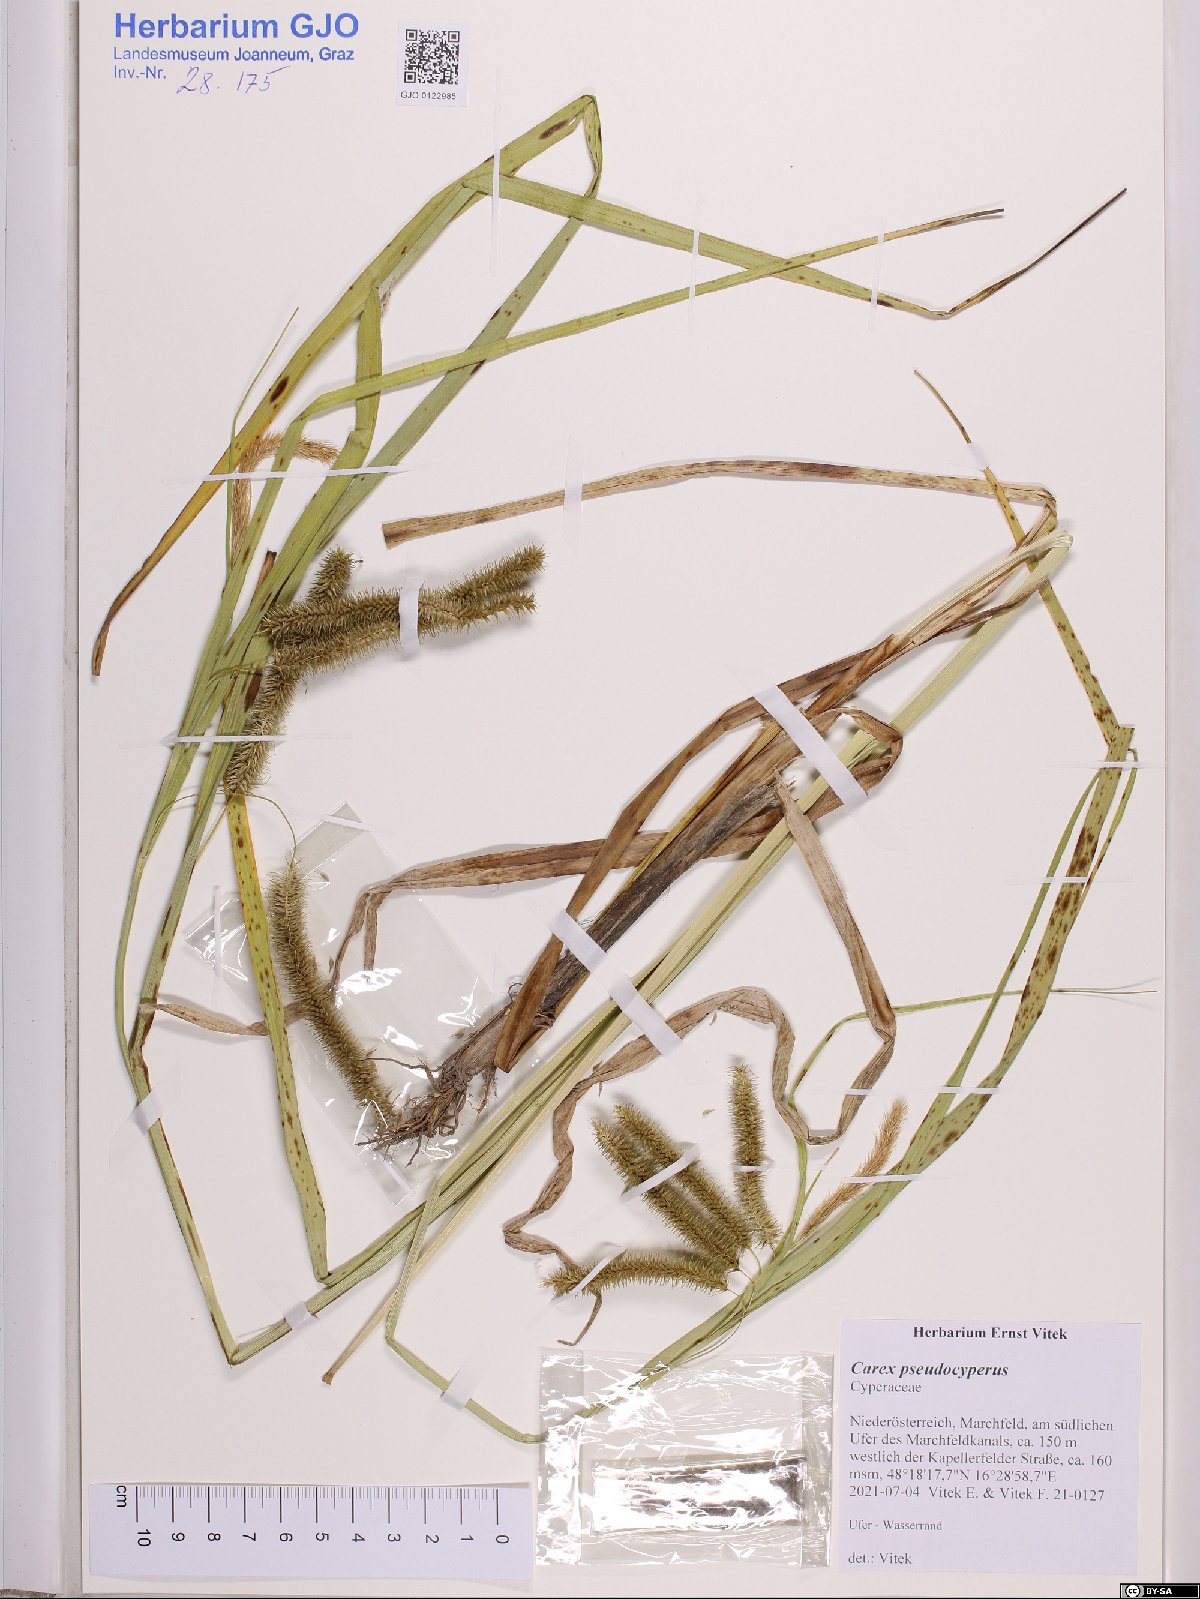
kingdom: Plantae
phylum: Tracheophyta
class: Liliopsida
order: Poales
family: Cyperaceae
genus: Carex
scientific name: Carex pseudocyperus
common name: Cyperus sedge
